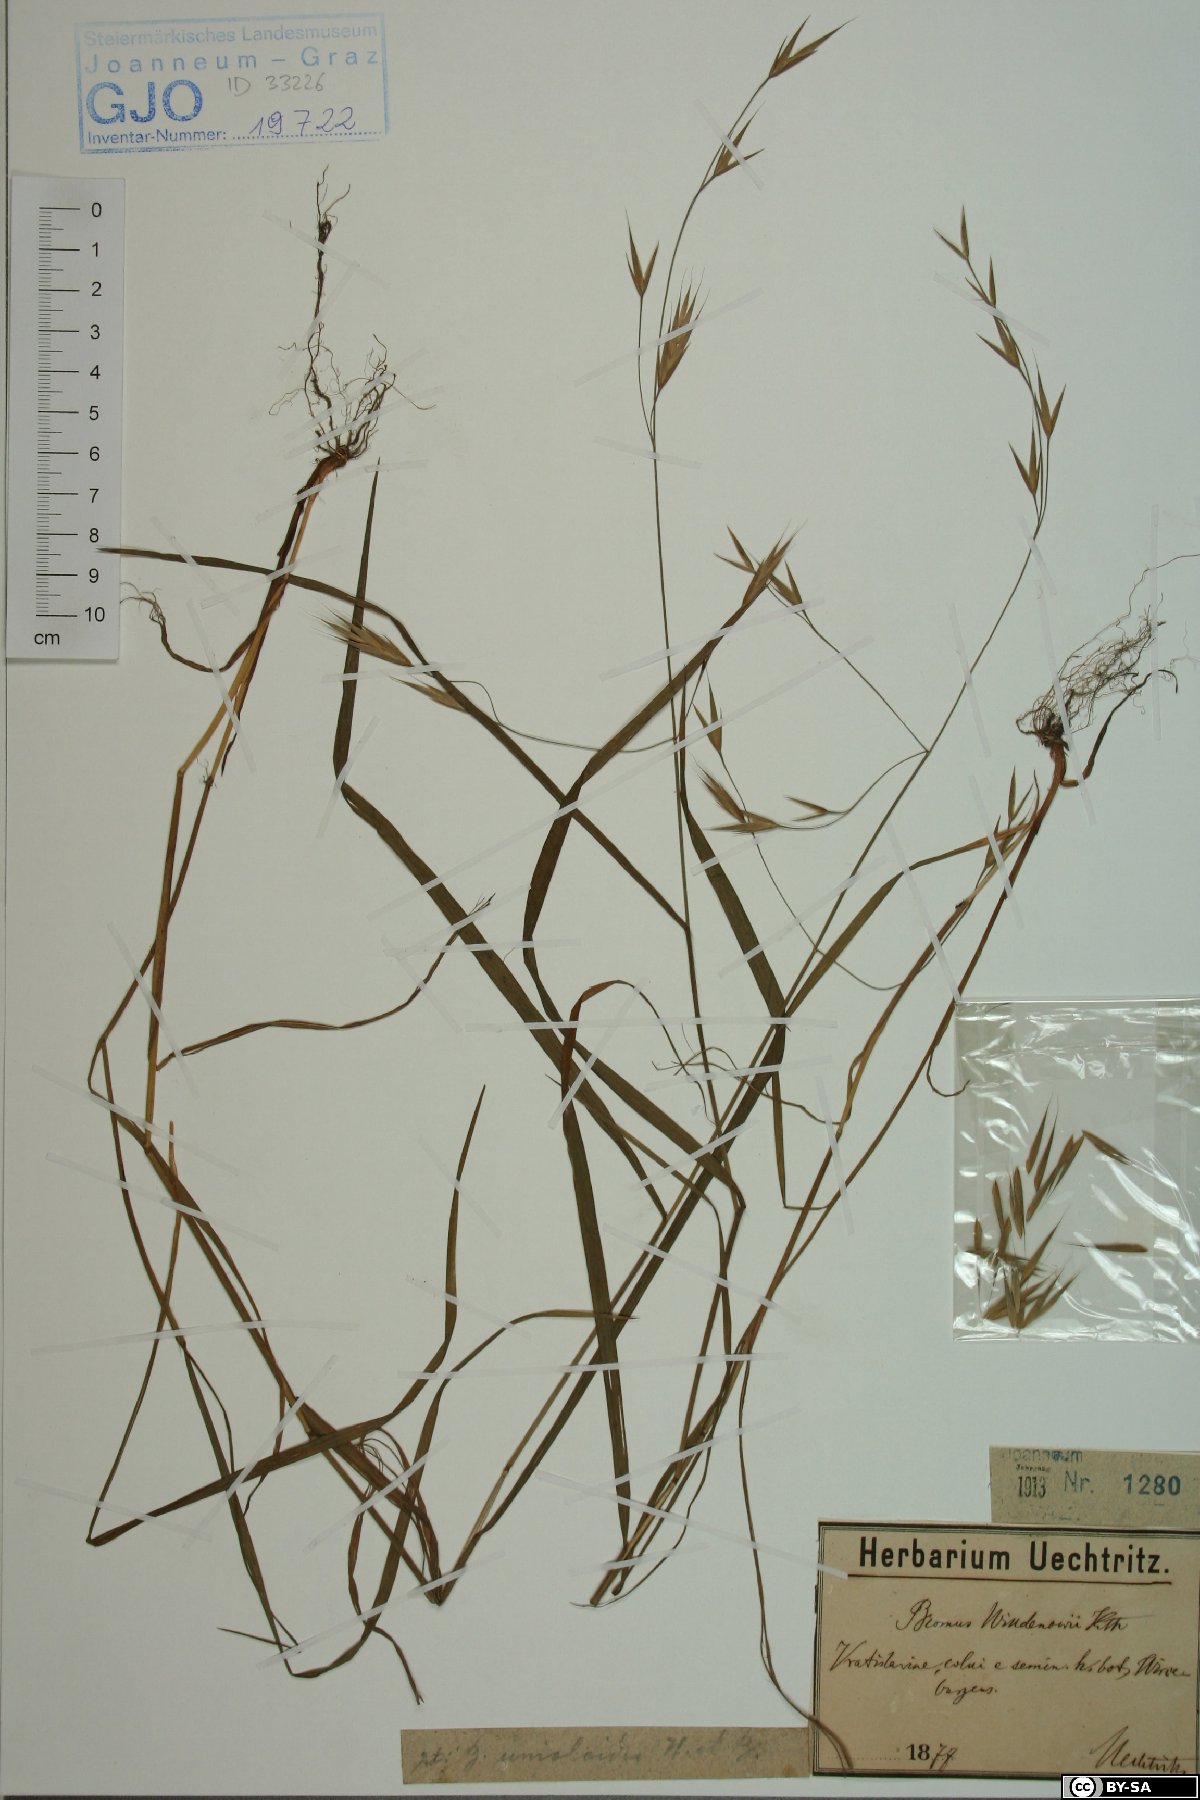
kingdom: Plantae
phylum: Tracheophyta
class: Liliopsida
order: Poales
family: Poaceae
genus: Bromus
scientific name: Bromus catharticus
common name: Rescuegrass
